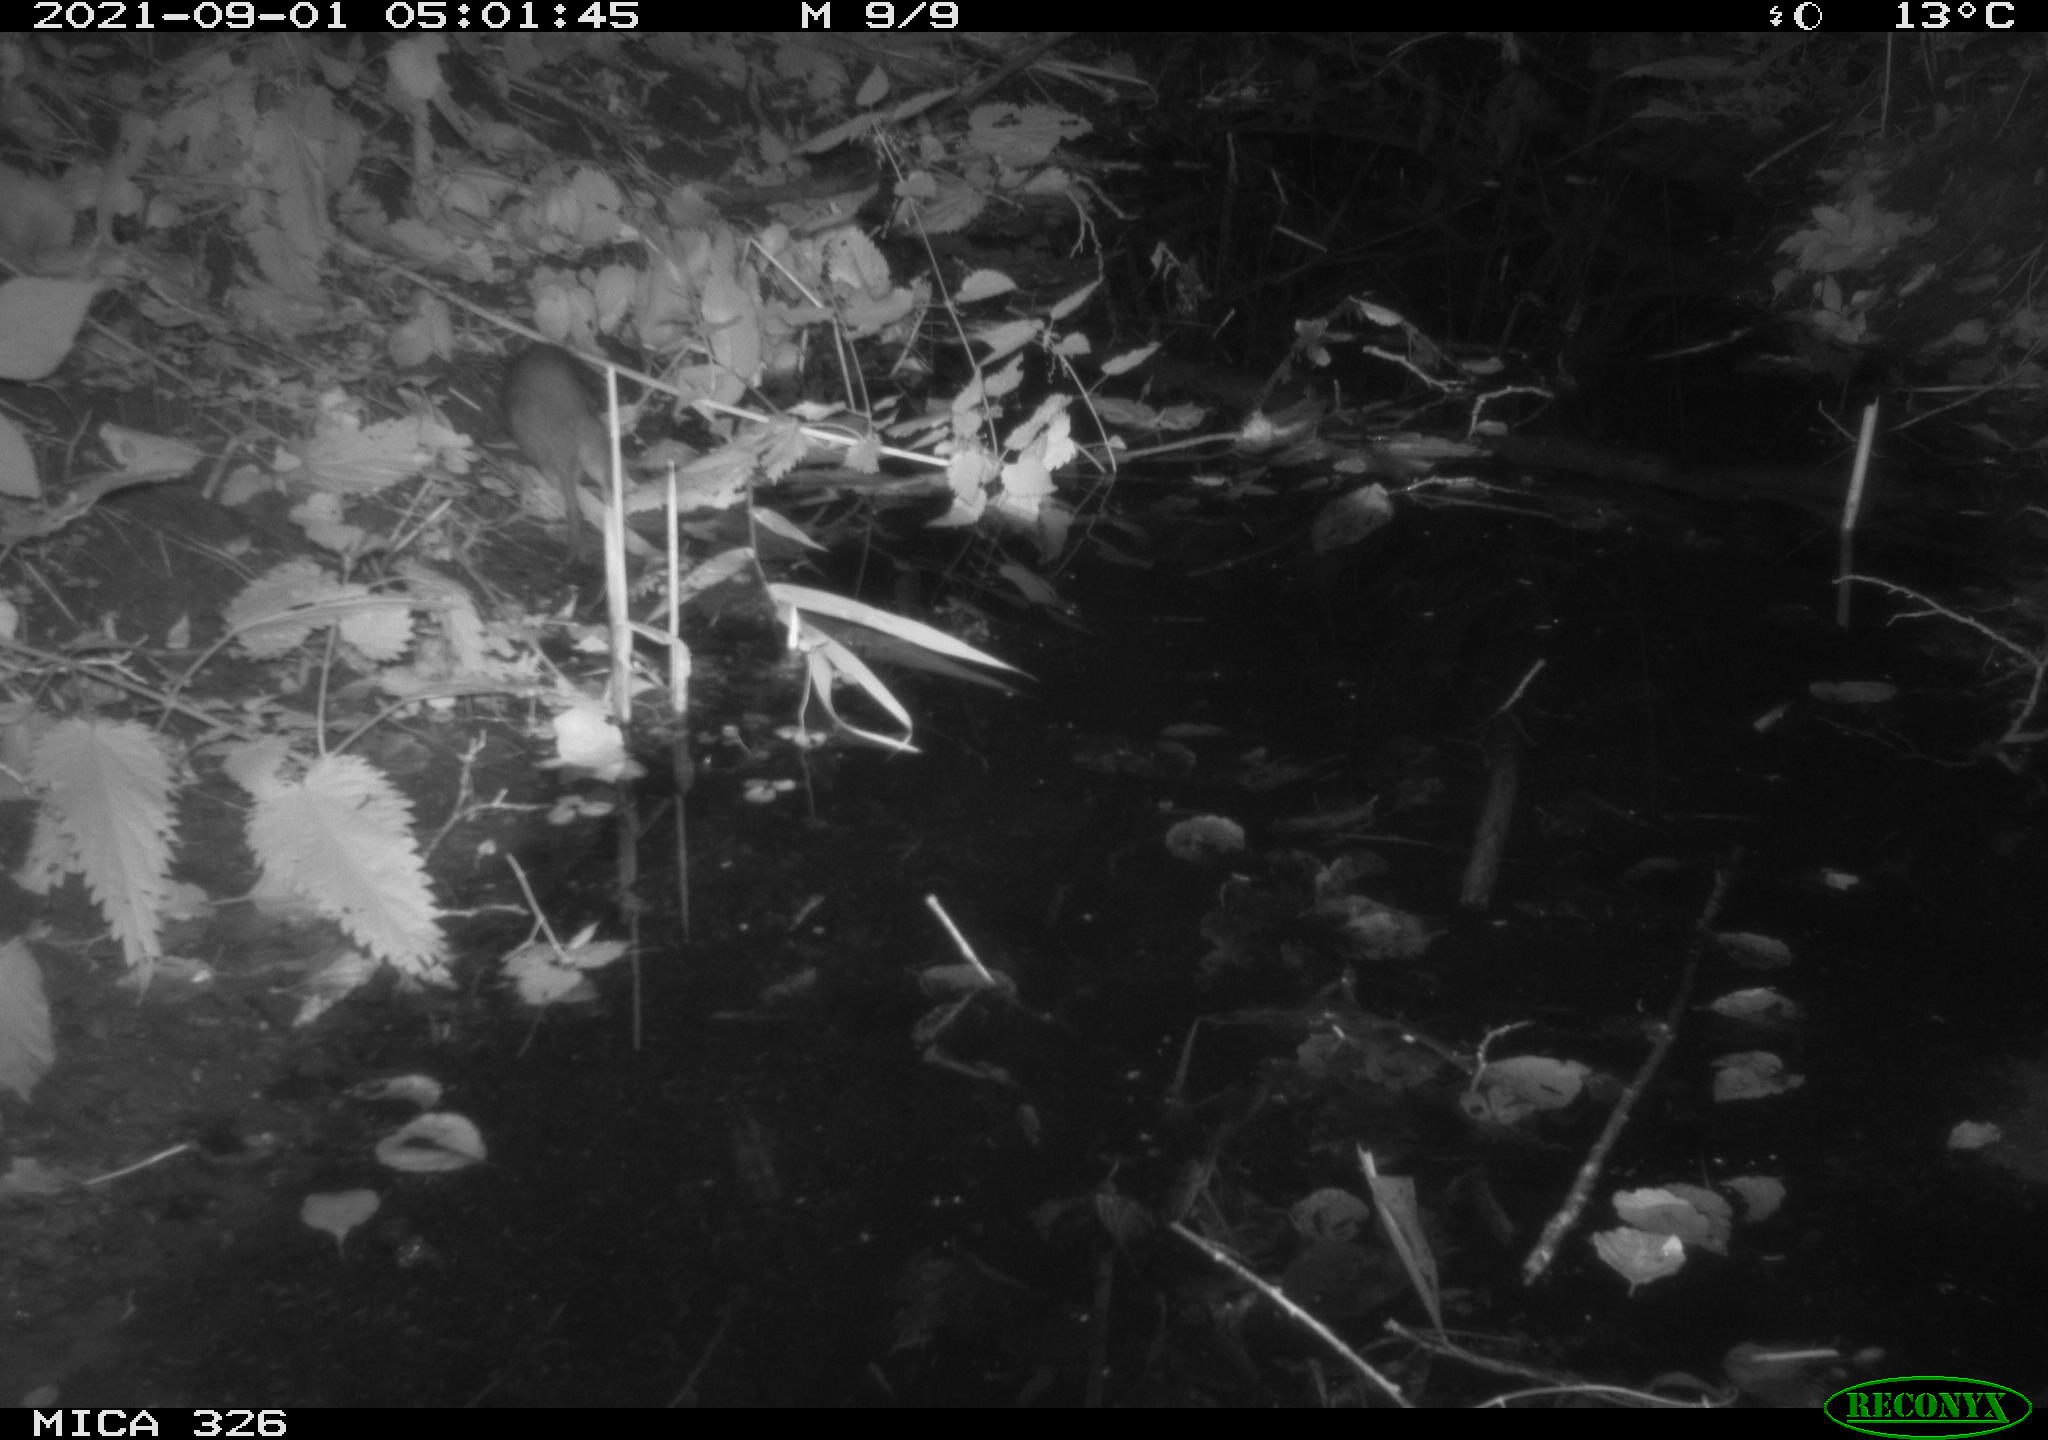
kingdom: Animalia
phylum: Chordata
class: Mammalia
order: Rodentia
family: Muridae
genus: Rattus
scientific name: Rattus norvegicus
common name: Brown rat
